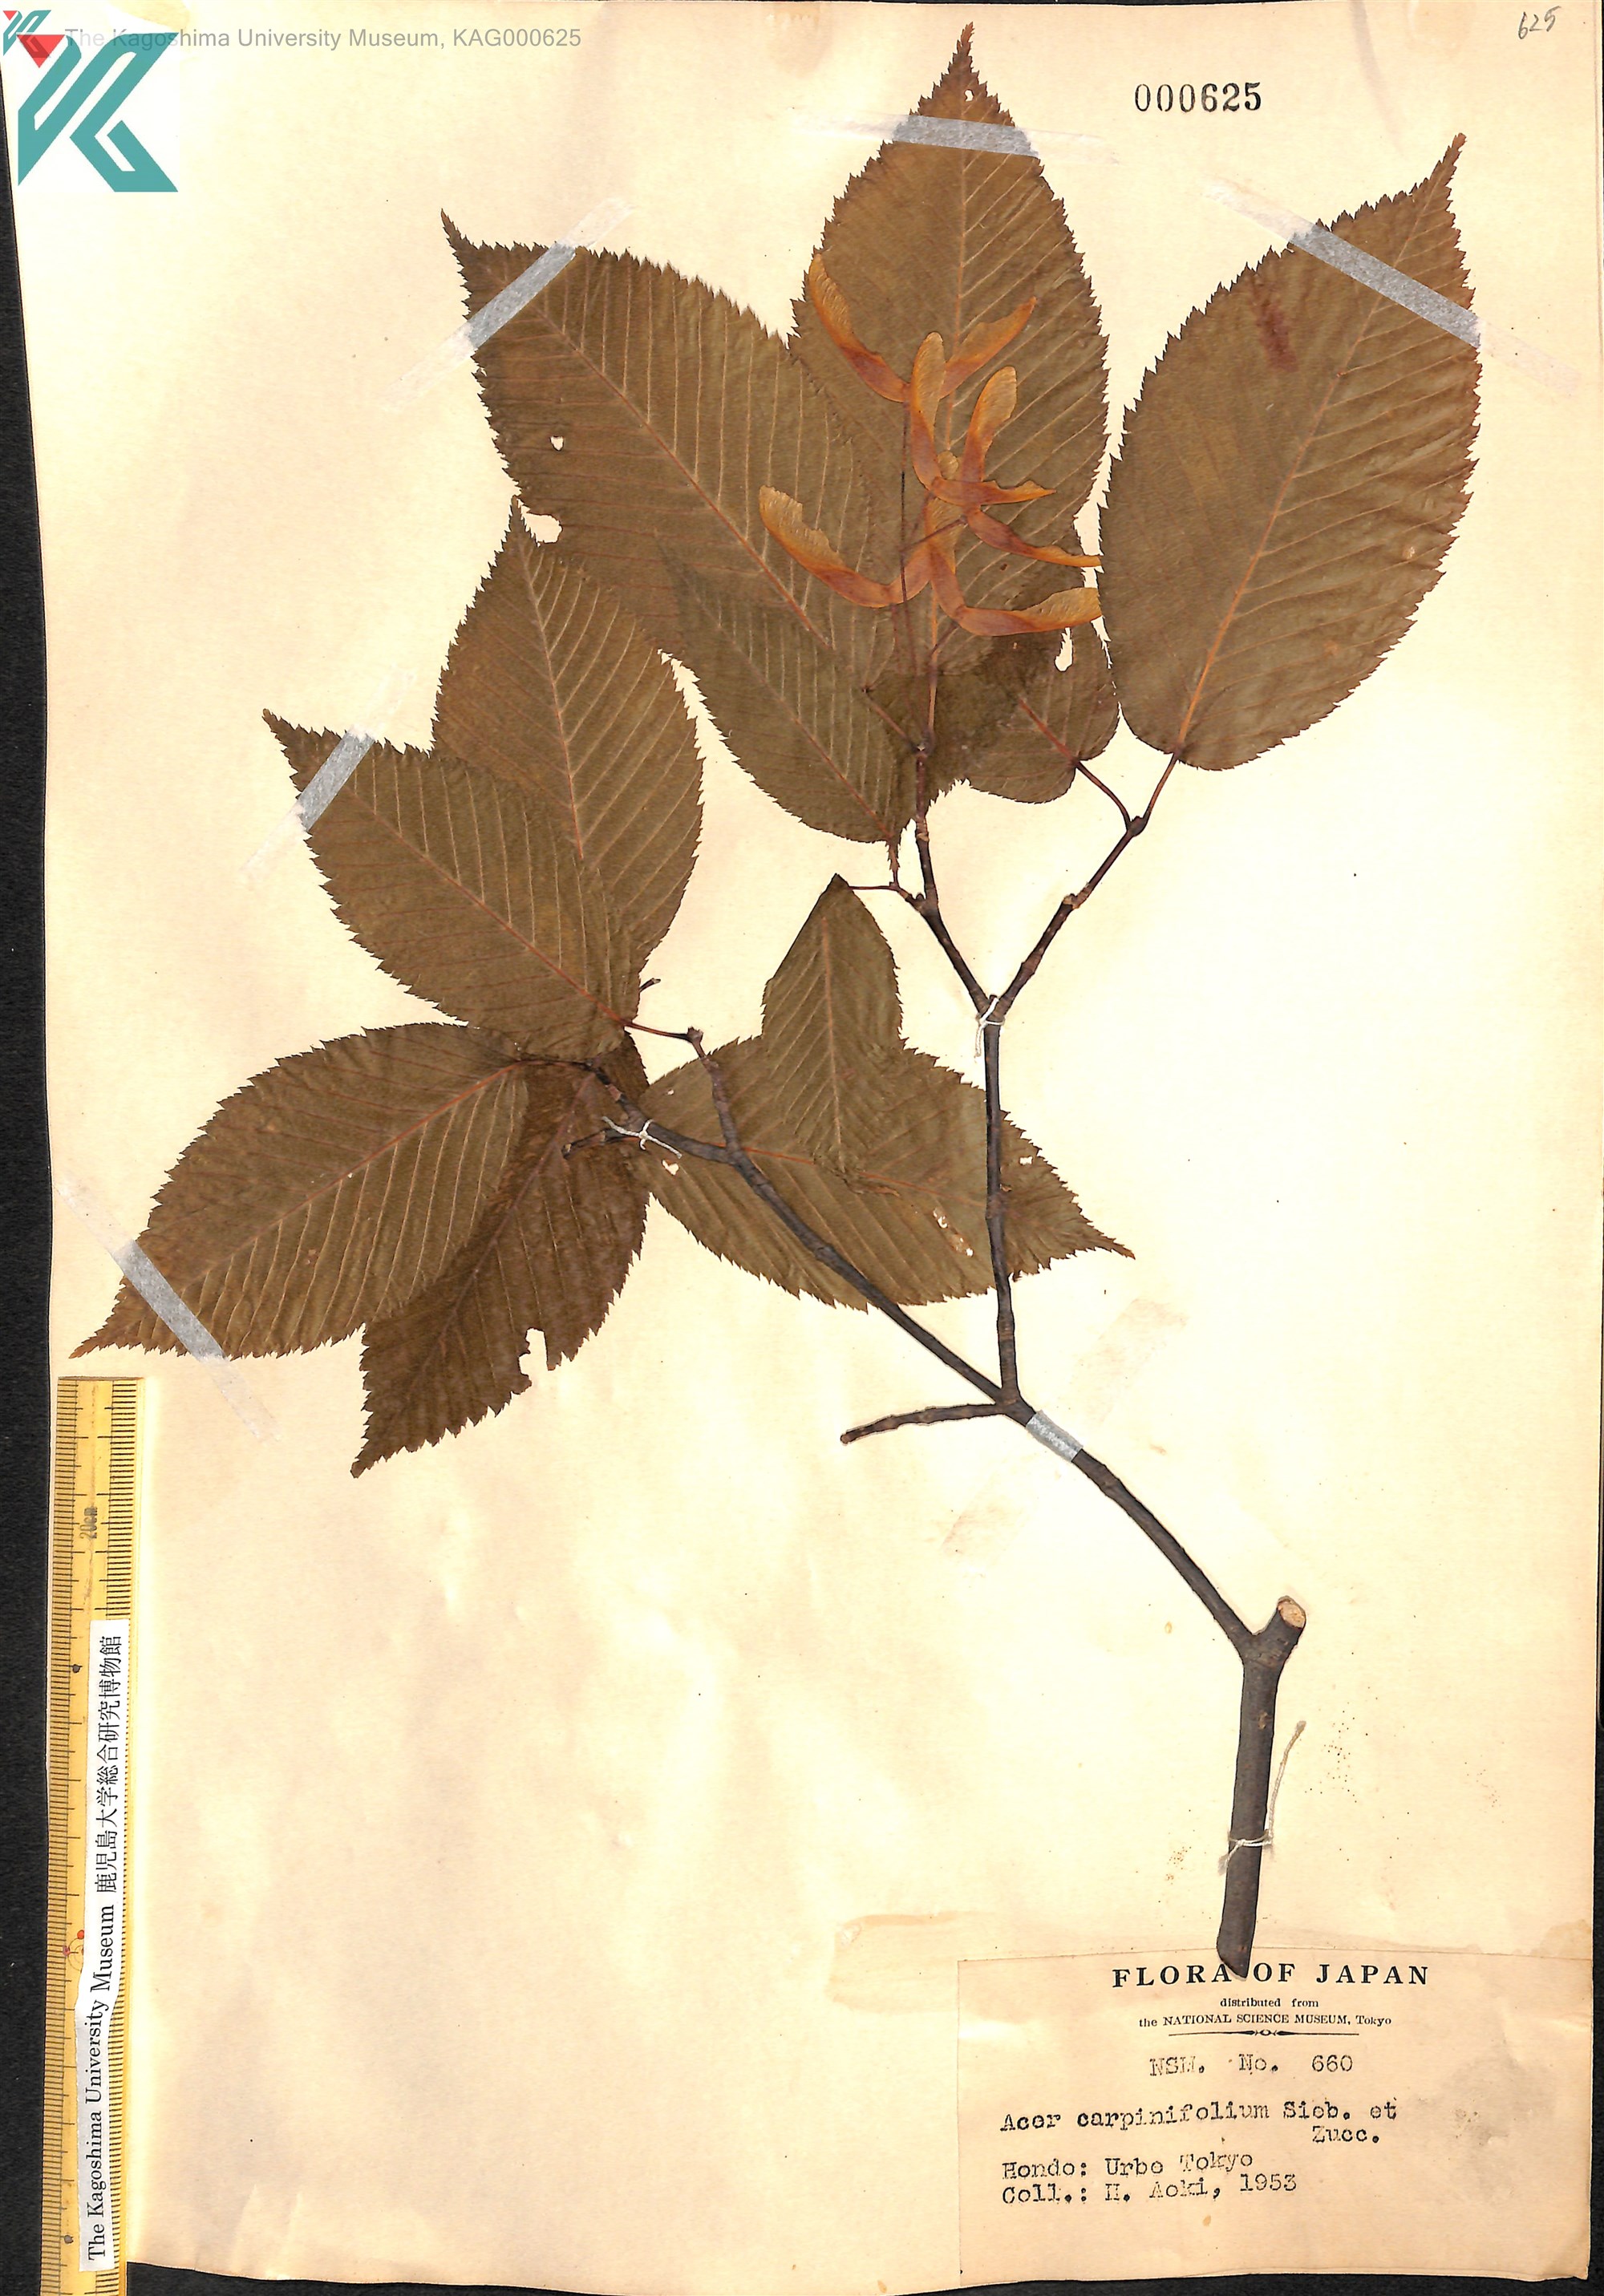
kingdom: Plantae
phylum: Tracheophyta
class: Magnoliopsida
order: Sapindales
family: Sapindaceae
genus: Acer
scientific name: Acer carpinifolium
